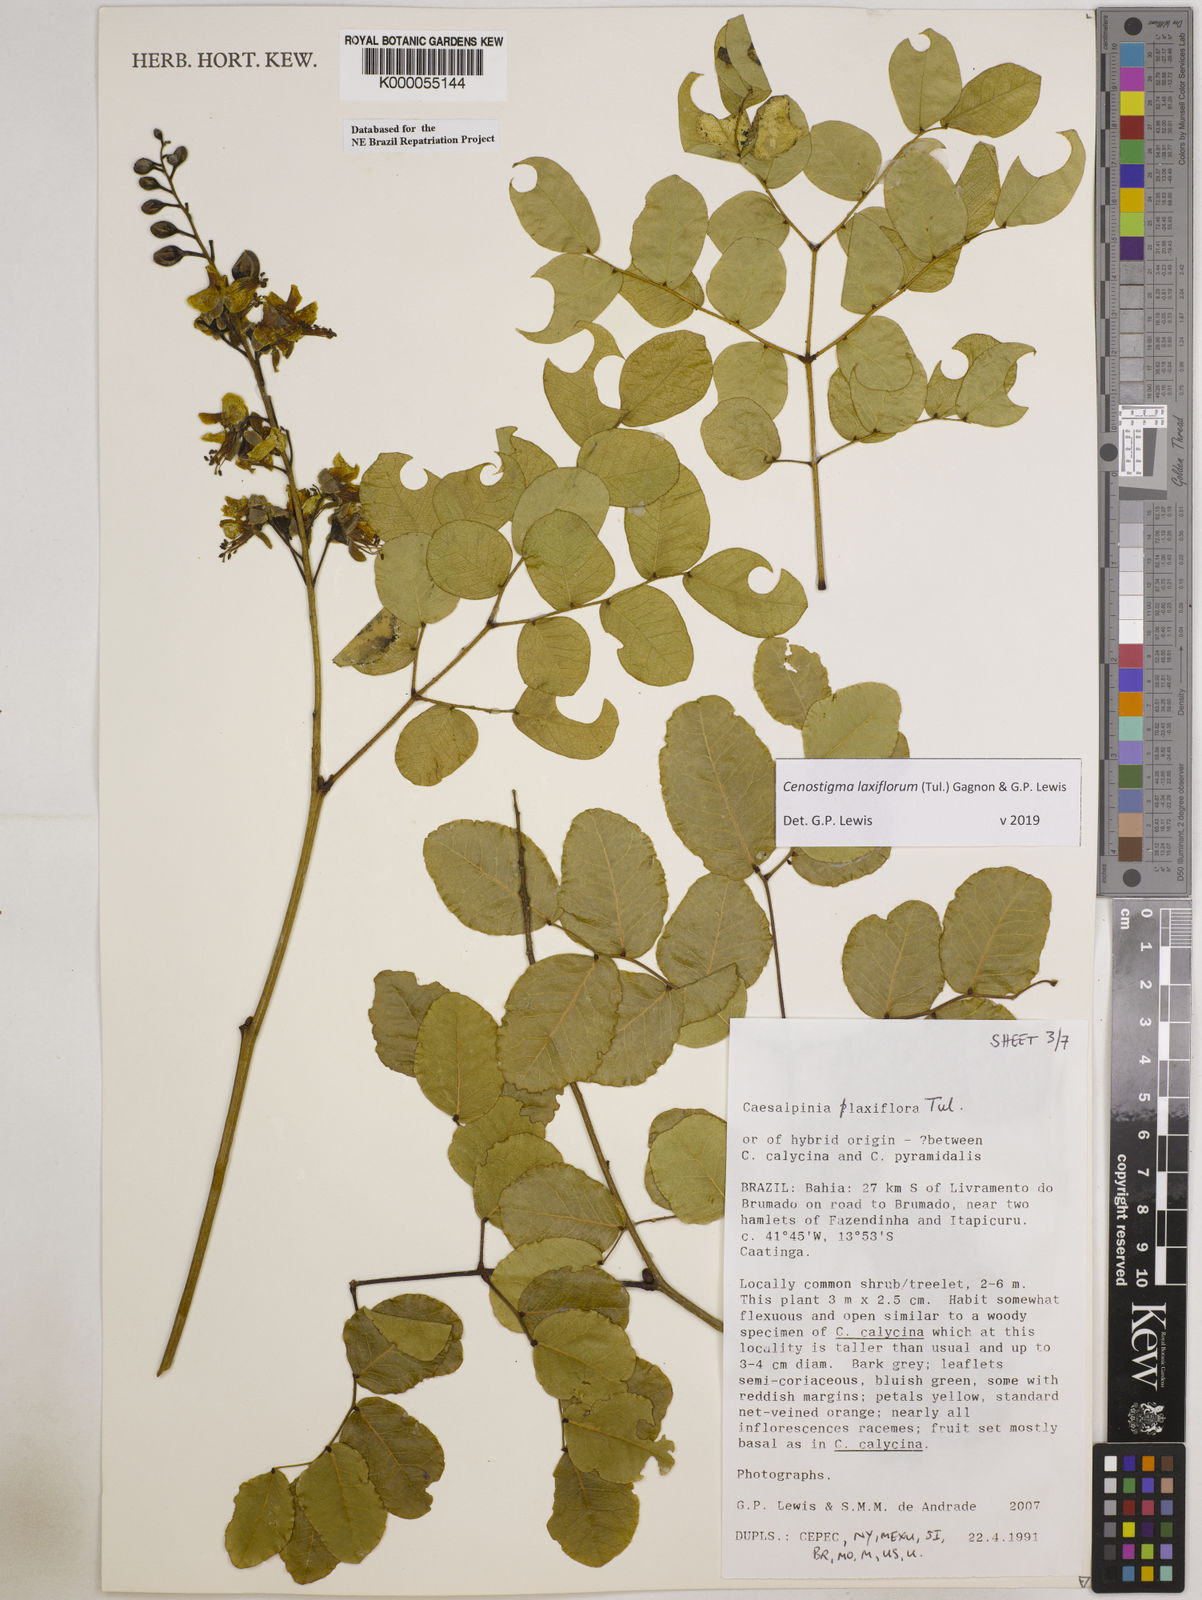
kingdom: Plantae
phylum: Tracheophyta
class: Magnoliopsida
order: Fabales
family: Fabaceae
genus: Cenostigma
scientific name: Cenostigma laxiflorum
